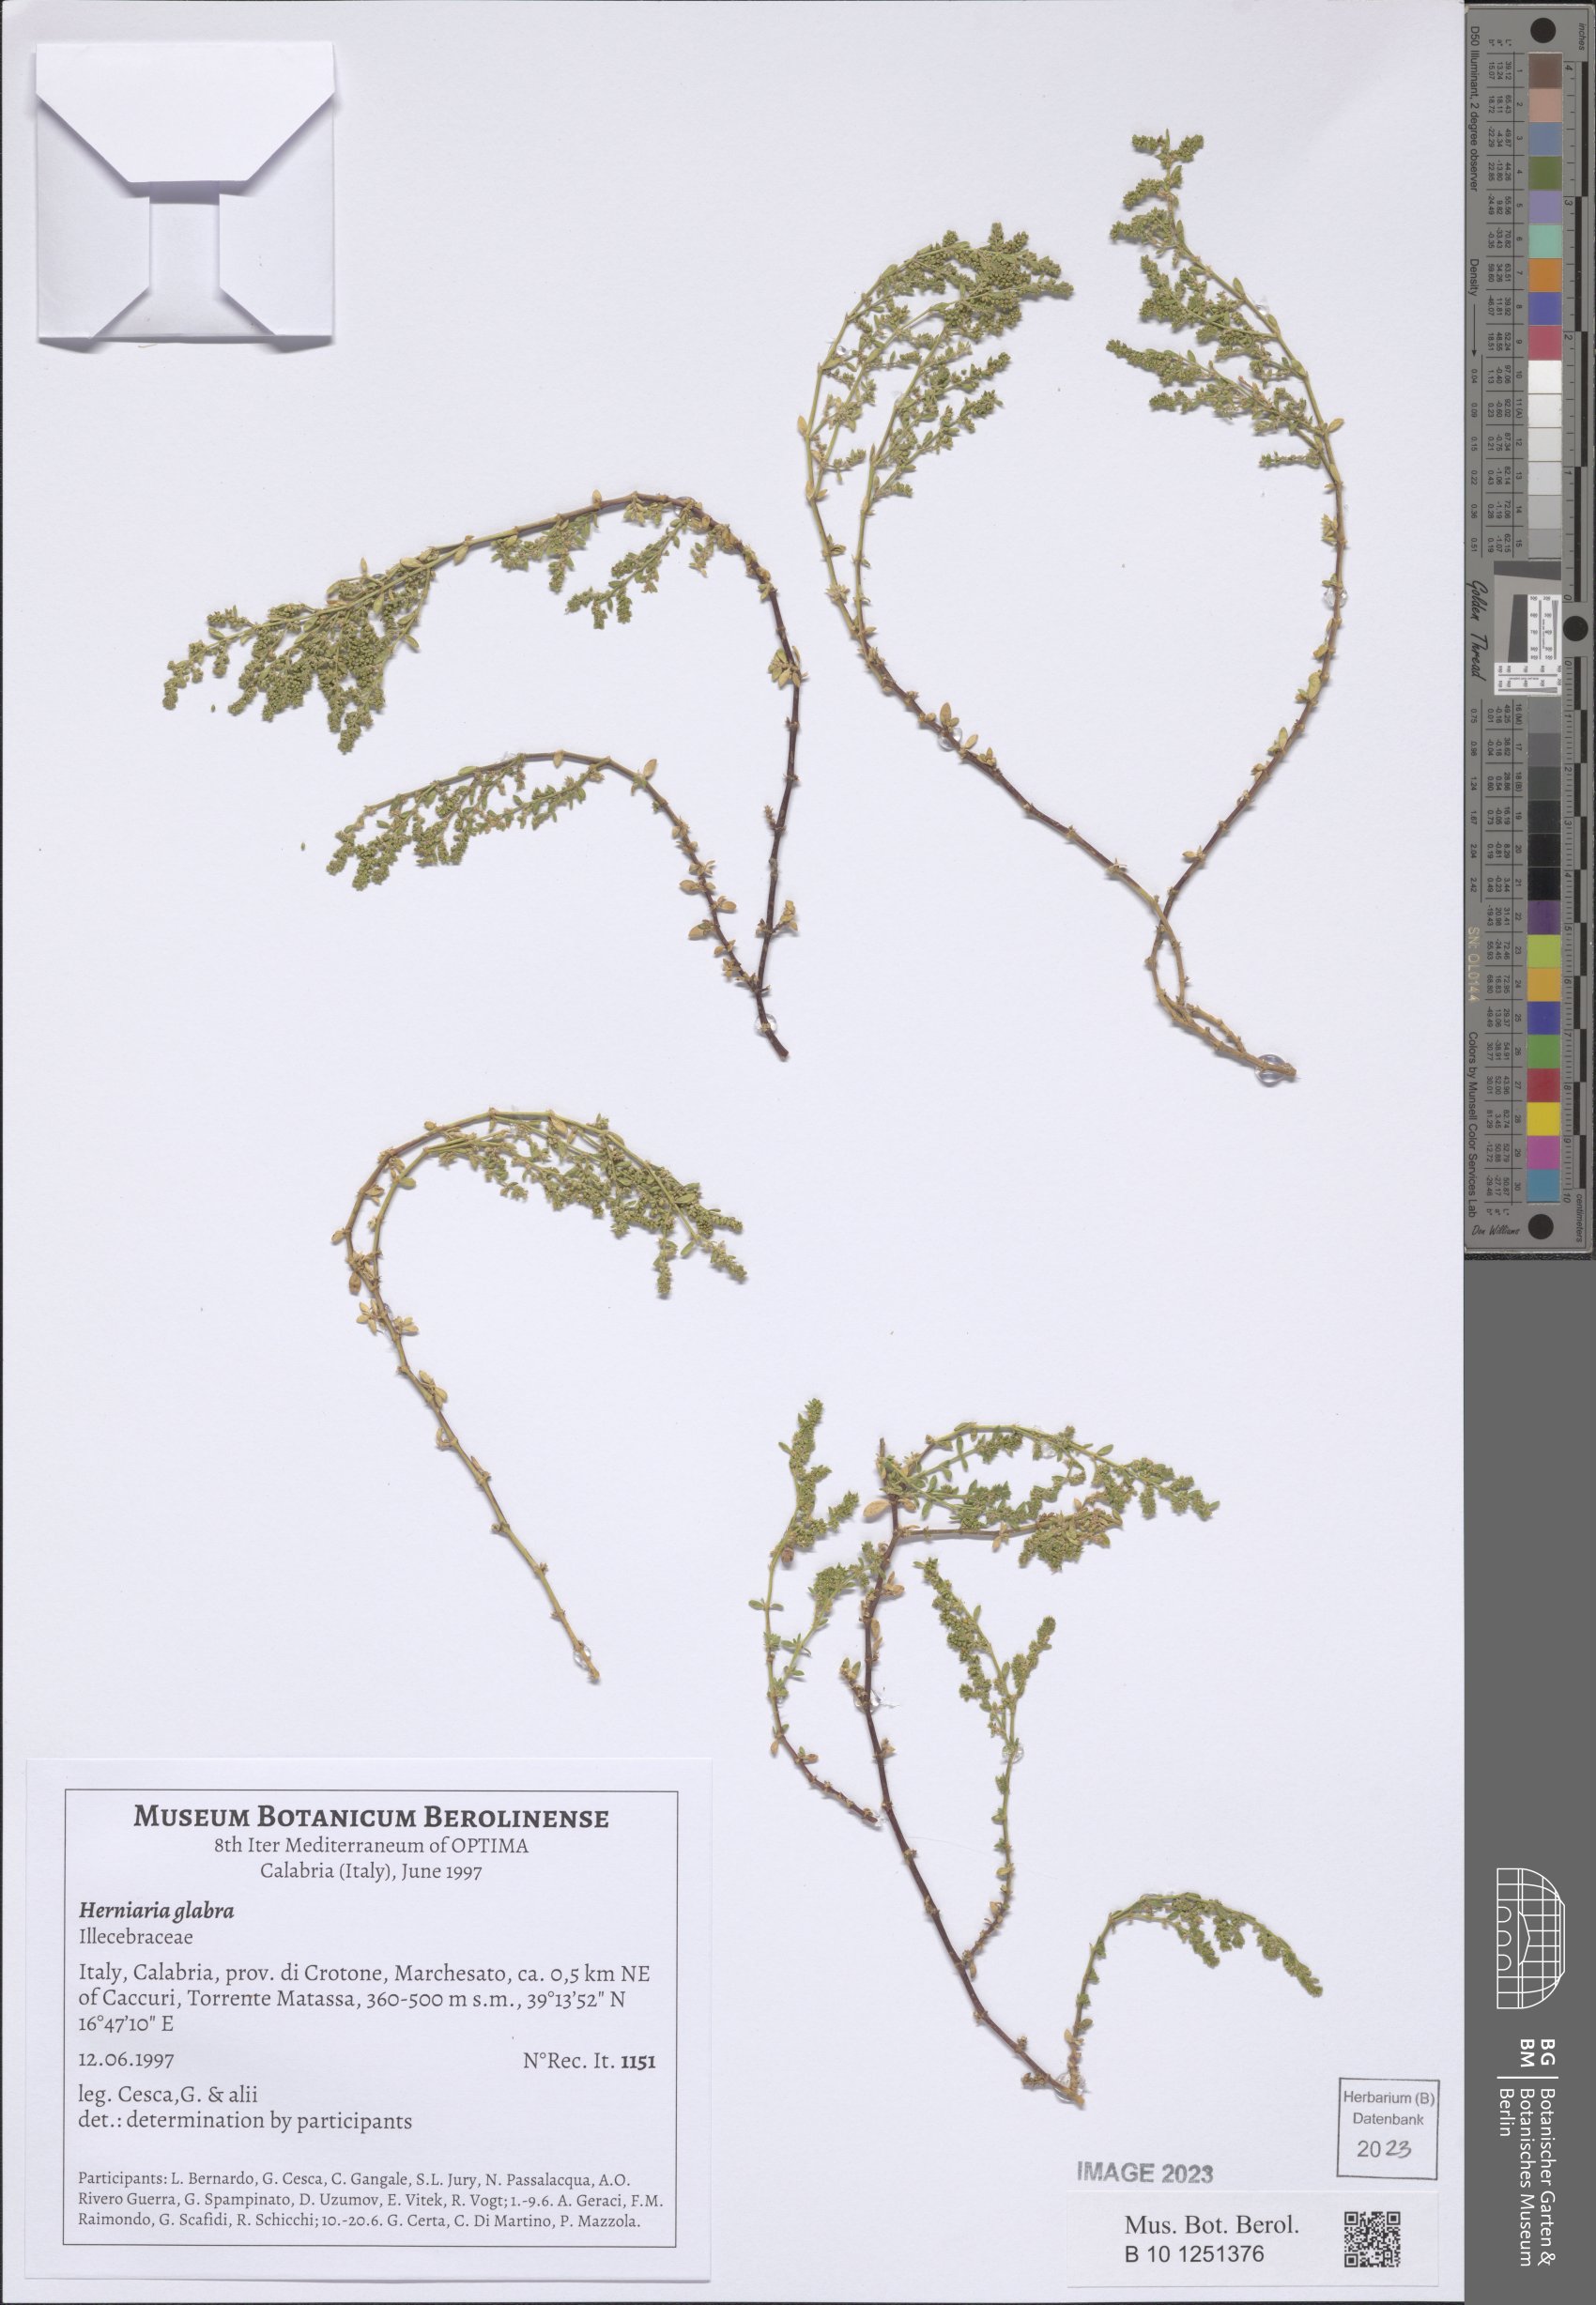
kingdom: Plantae
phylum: Tracheophyta
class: Magnoliopsida
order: Caryophyllales
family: Caryophyllaceae
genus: Herniaria
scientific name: Herniaria glabra
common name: Smooth rupturewort
